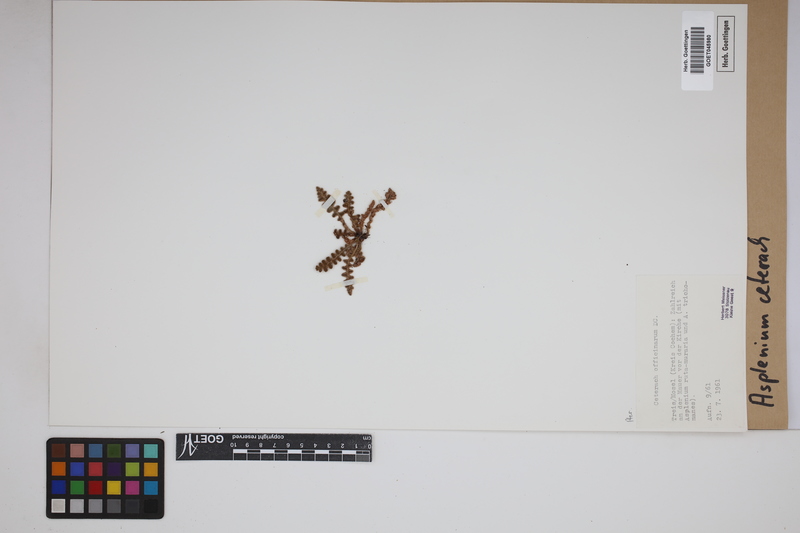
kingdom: Plantae
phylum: Tracheophyta
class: Polypodiopsida
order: Polypodiales
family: Aspleniaceae
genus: Asplenium
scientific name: Asplenium ceterach
